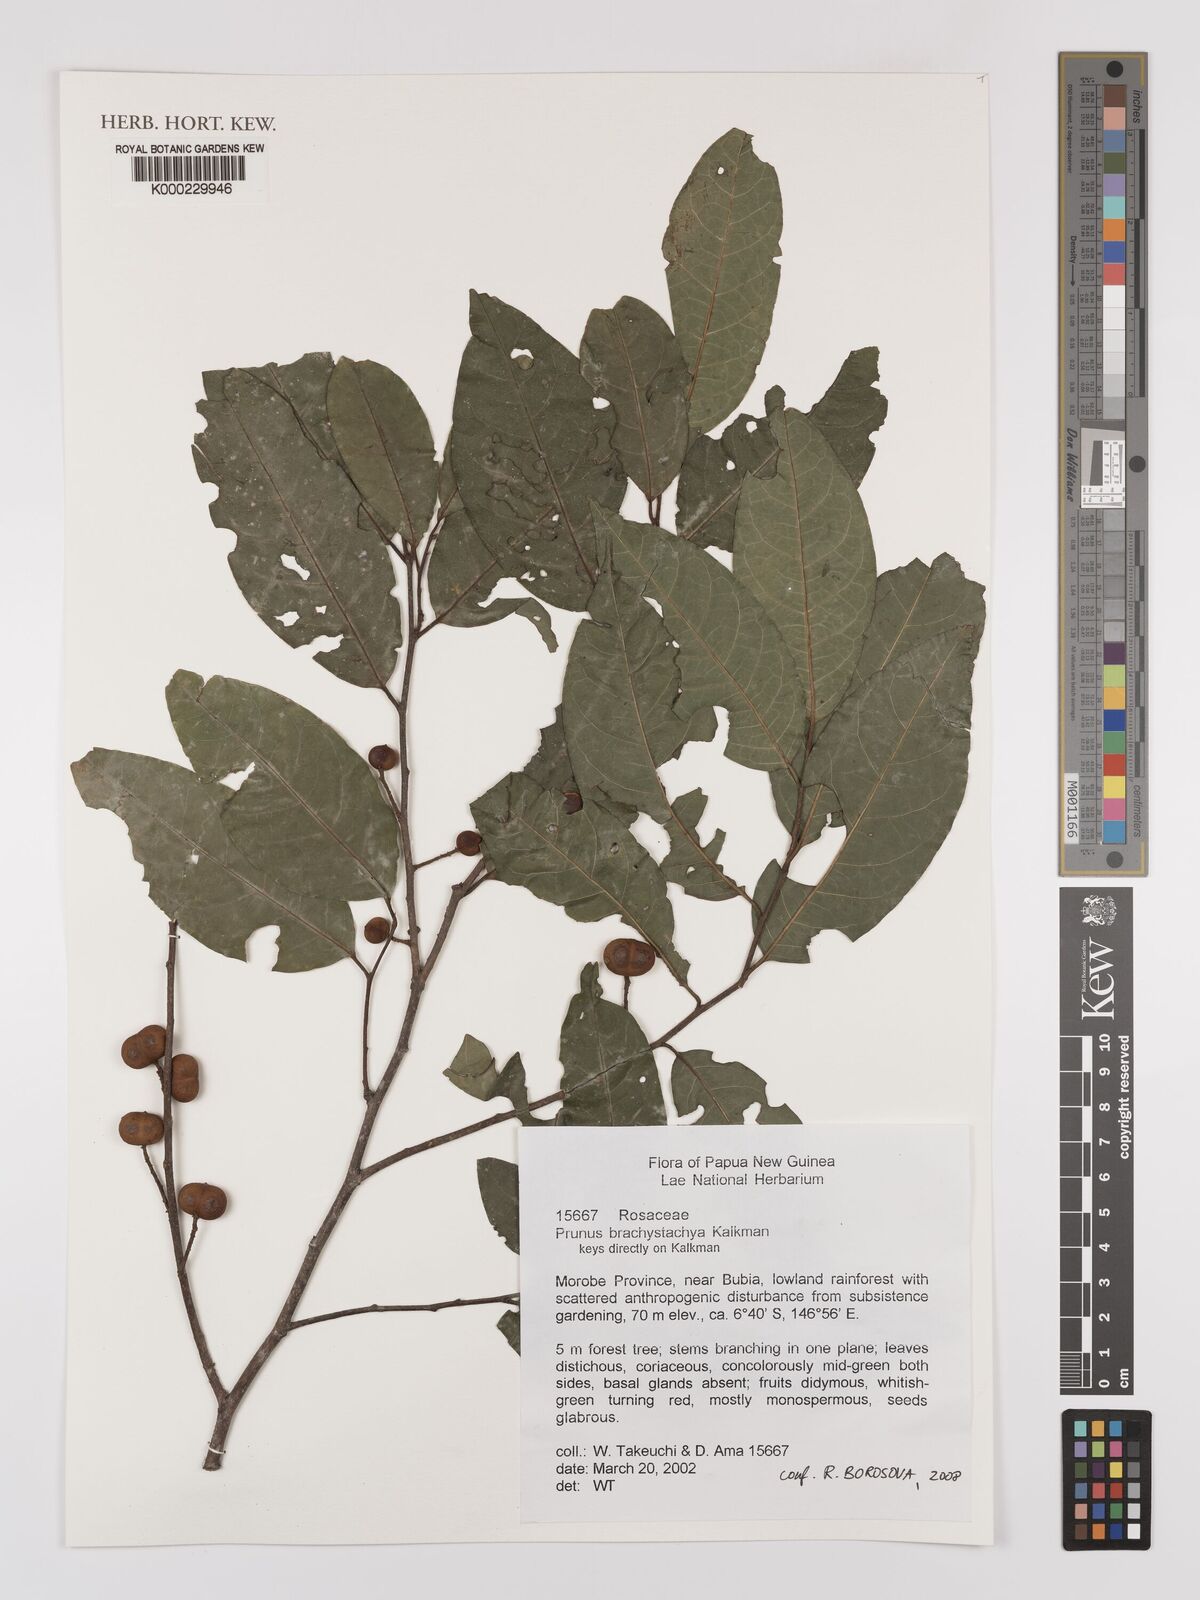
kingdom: Plantae
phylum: Tracheophyta
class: Magnoliopsida
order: Rosales
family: Rosaceae
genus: Prunus
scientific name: Prunus brachystachya
